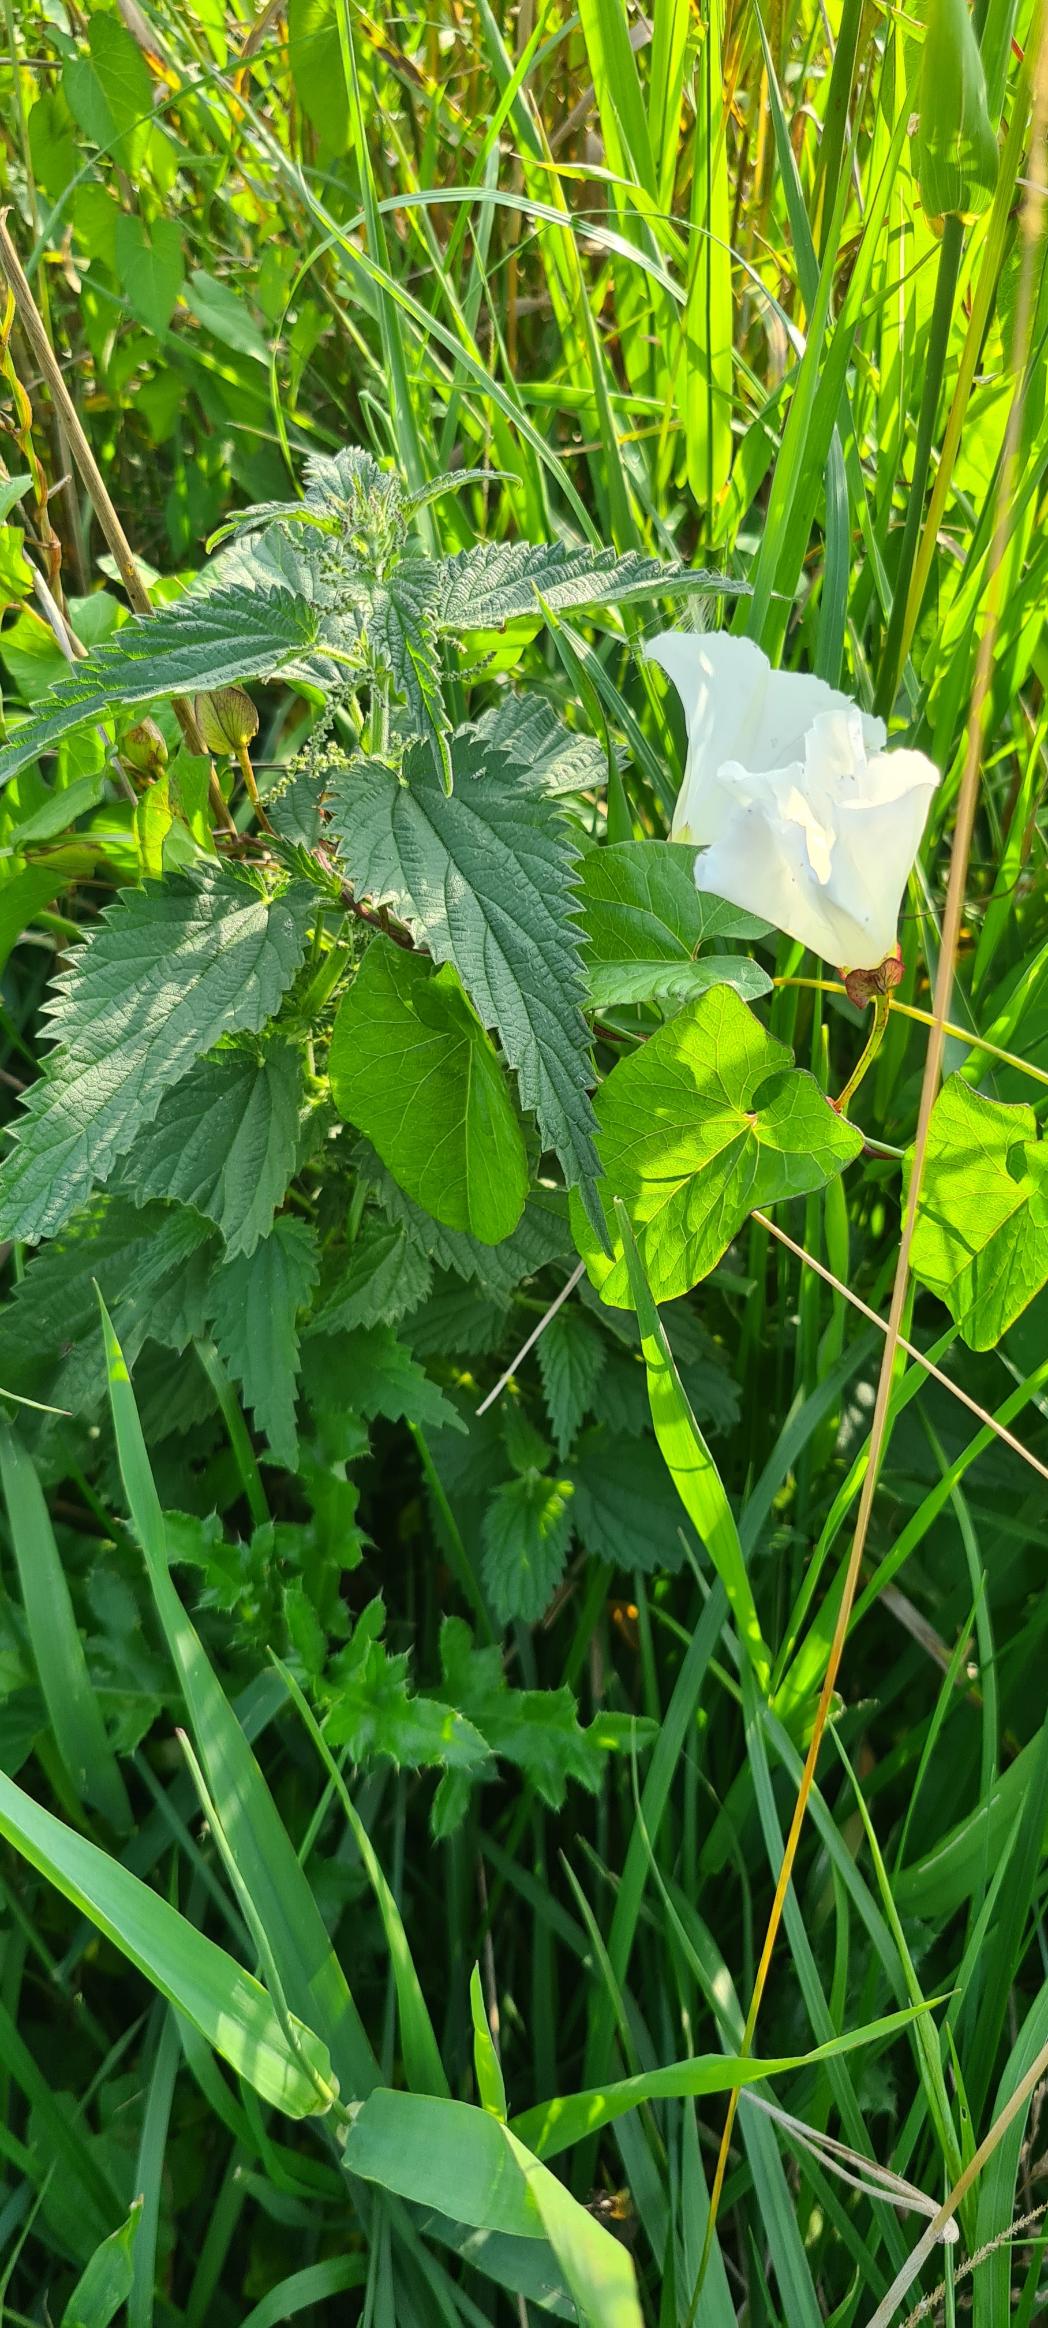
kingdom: Plantae
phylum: Tracheophyta
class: Magnoliopsida
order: Solanales
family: Convolvulaceae
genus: Calystegia
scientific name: Calystegia sepium
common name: Gærde-snerle
